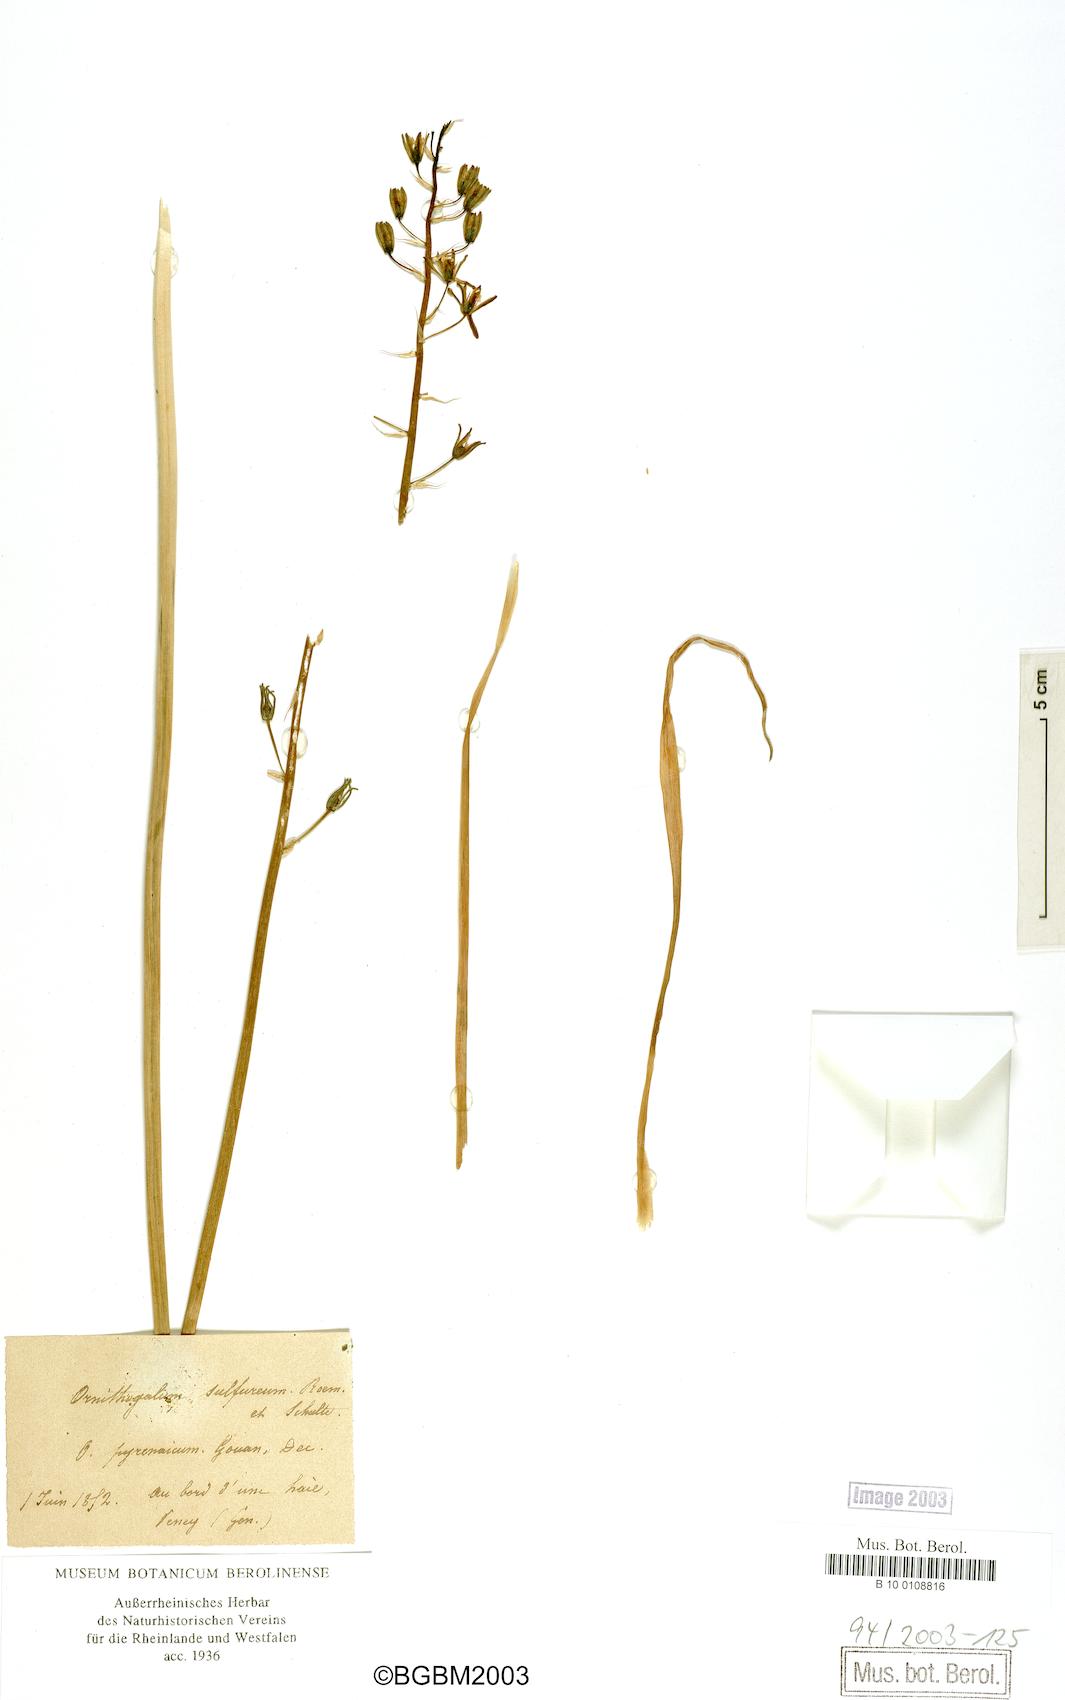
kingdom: Plantae
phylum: Tracheophyta
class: Liliopsida
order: Asparagales
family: Asparagaceae
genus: Ornithogalum
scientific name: Ornithogalum pyrenaicum
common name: Spiked star-of-bethlehem
